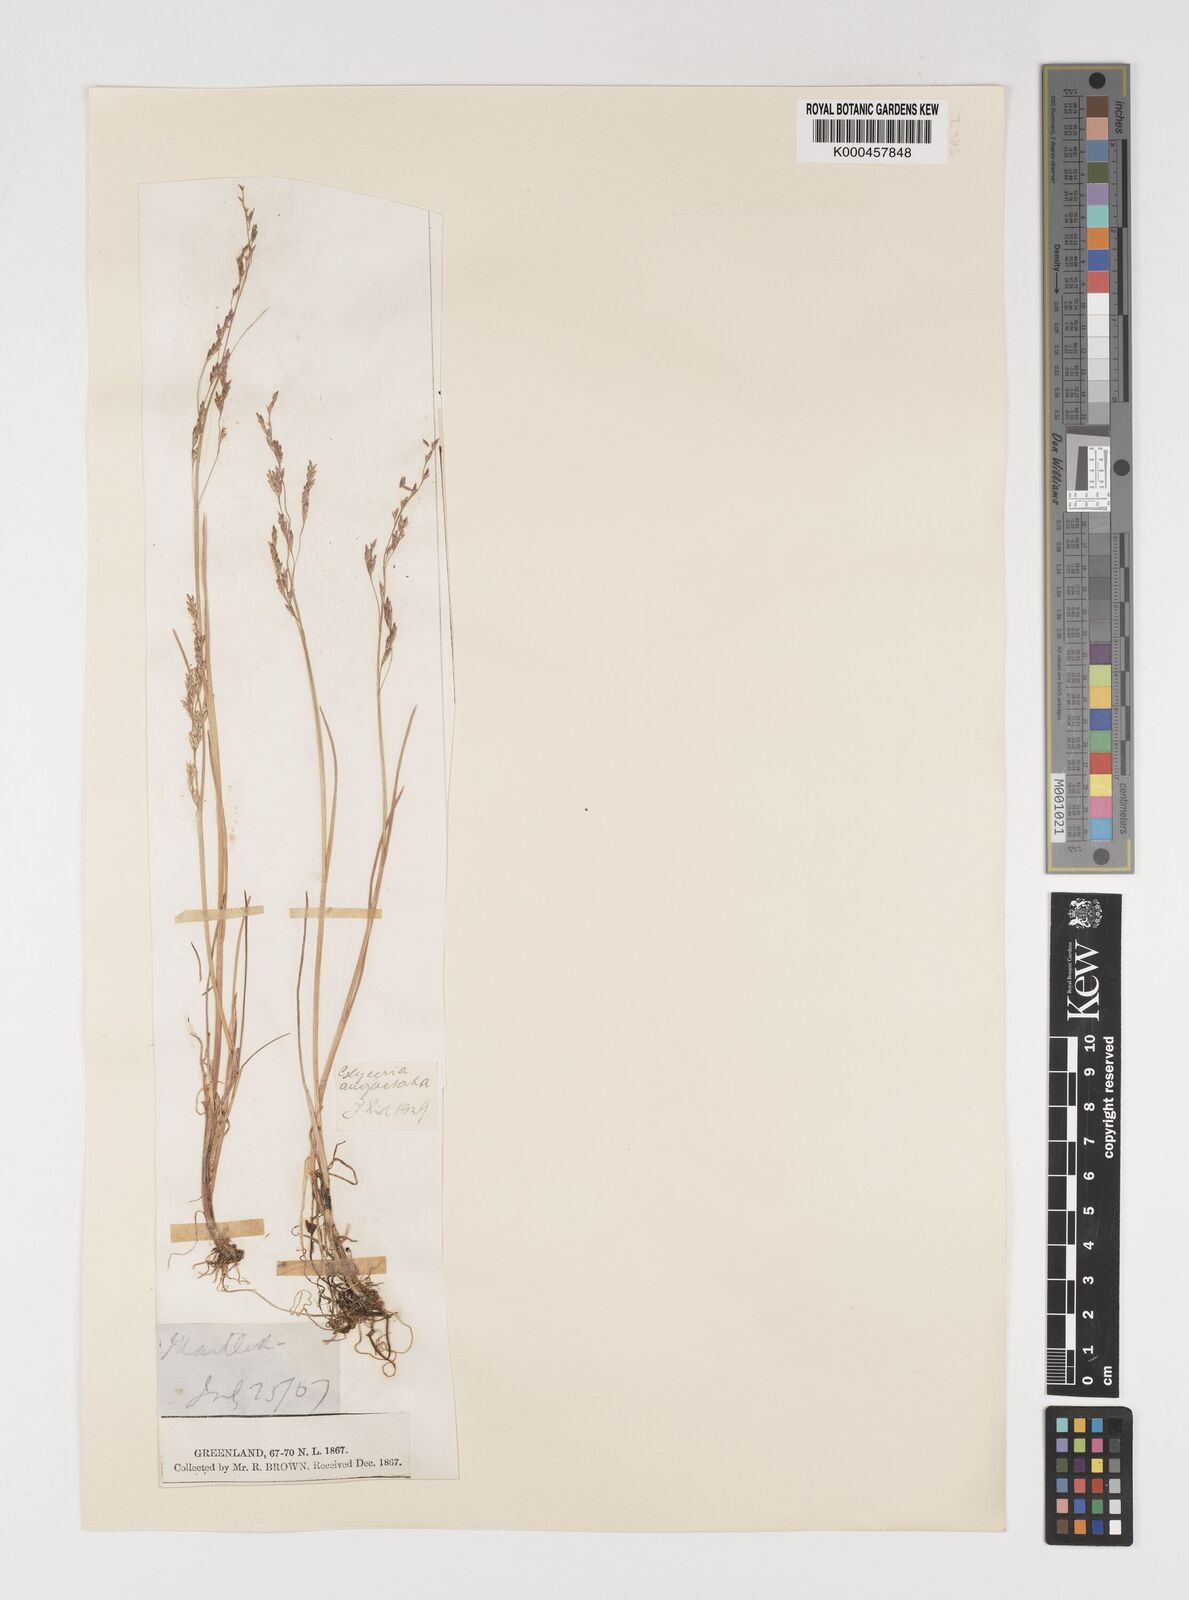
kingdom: Plantae
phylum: Tracheophyta
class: Liliopsida
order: Poales
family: Poaceae
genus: Puccinellia
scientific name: Puccinellia angustata
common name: Narrow alkaligrass
